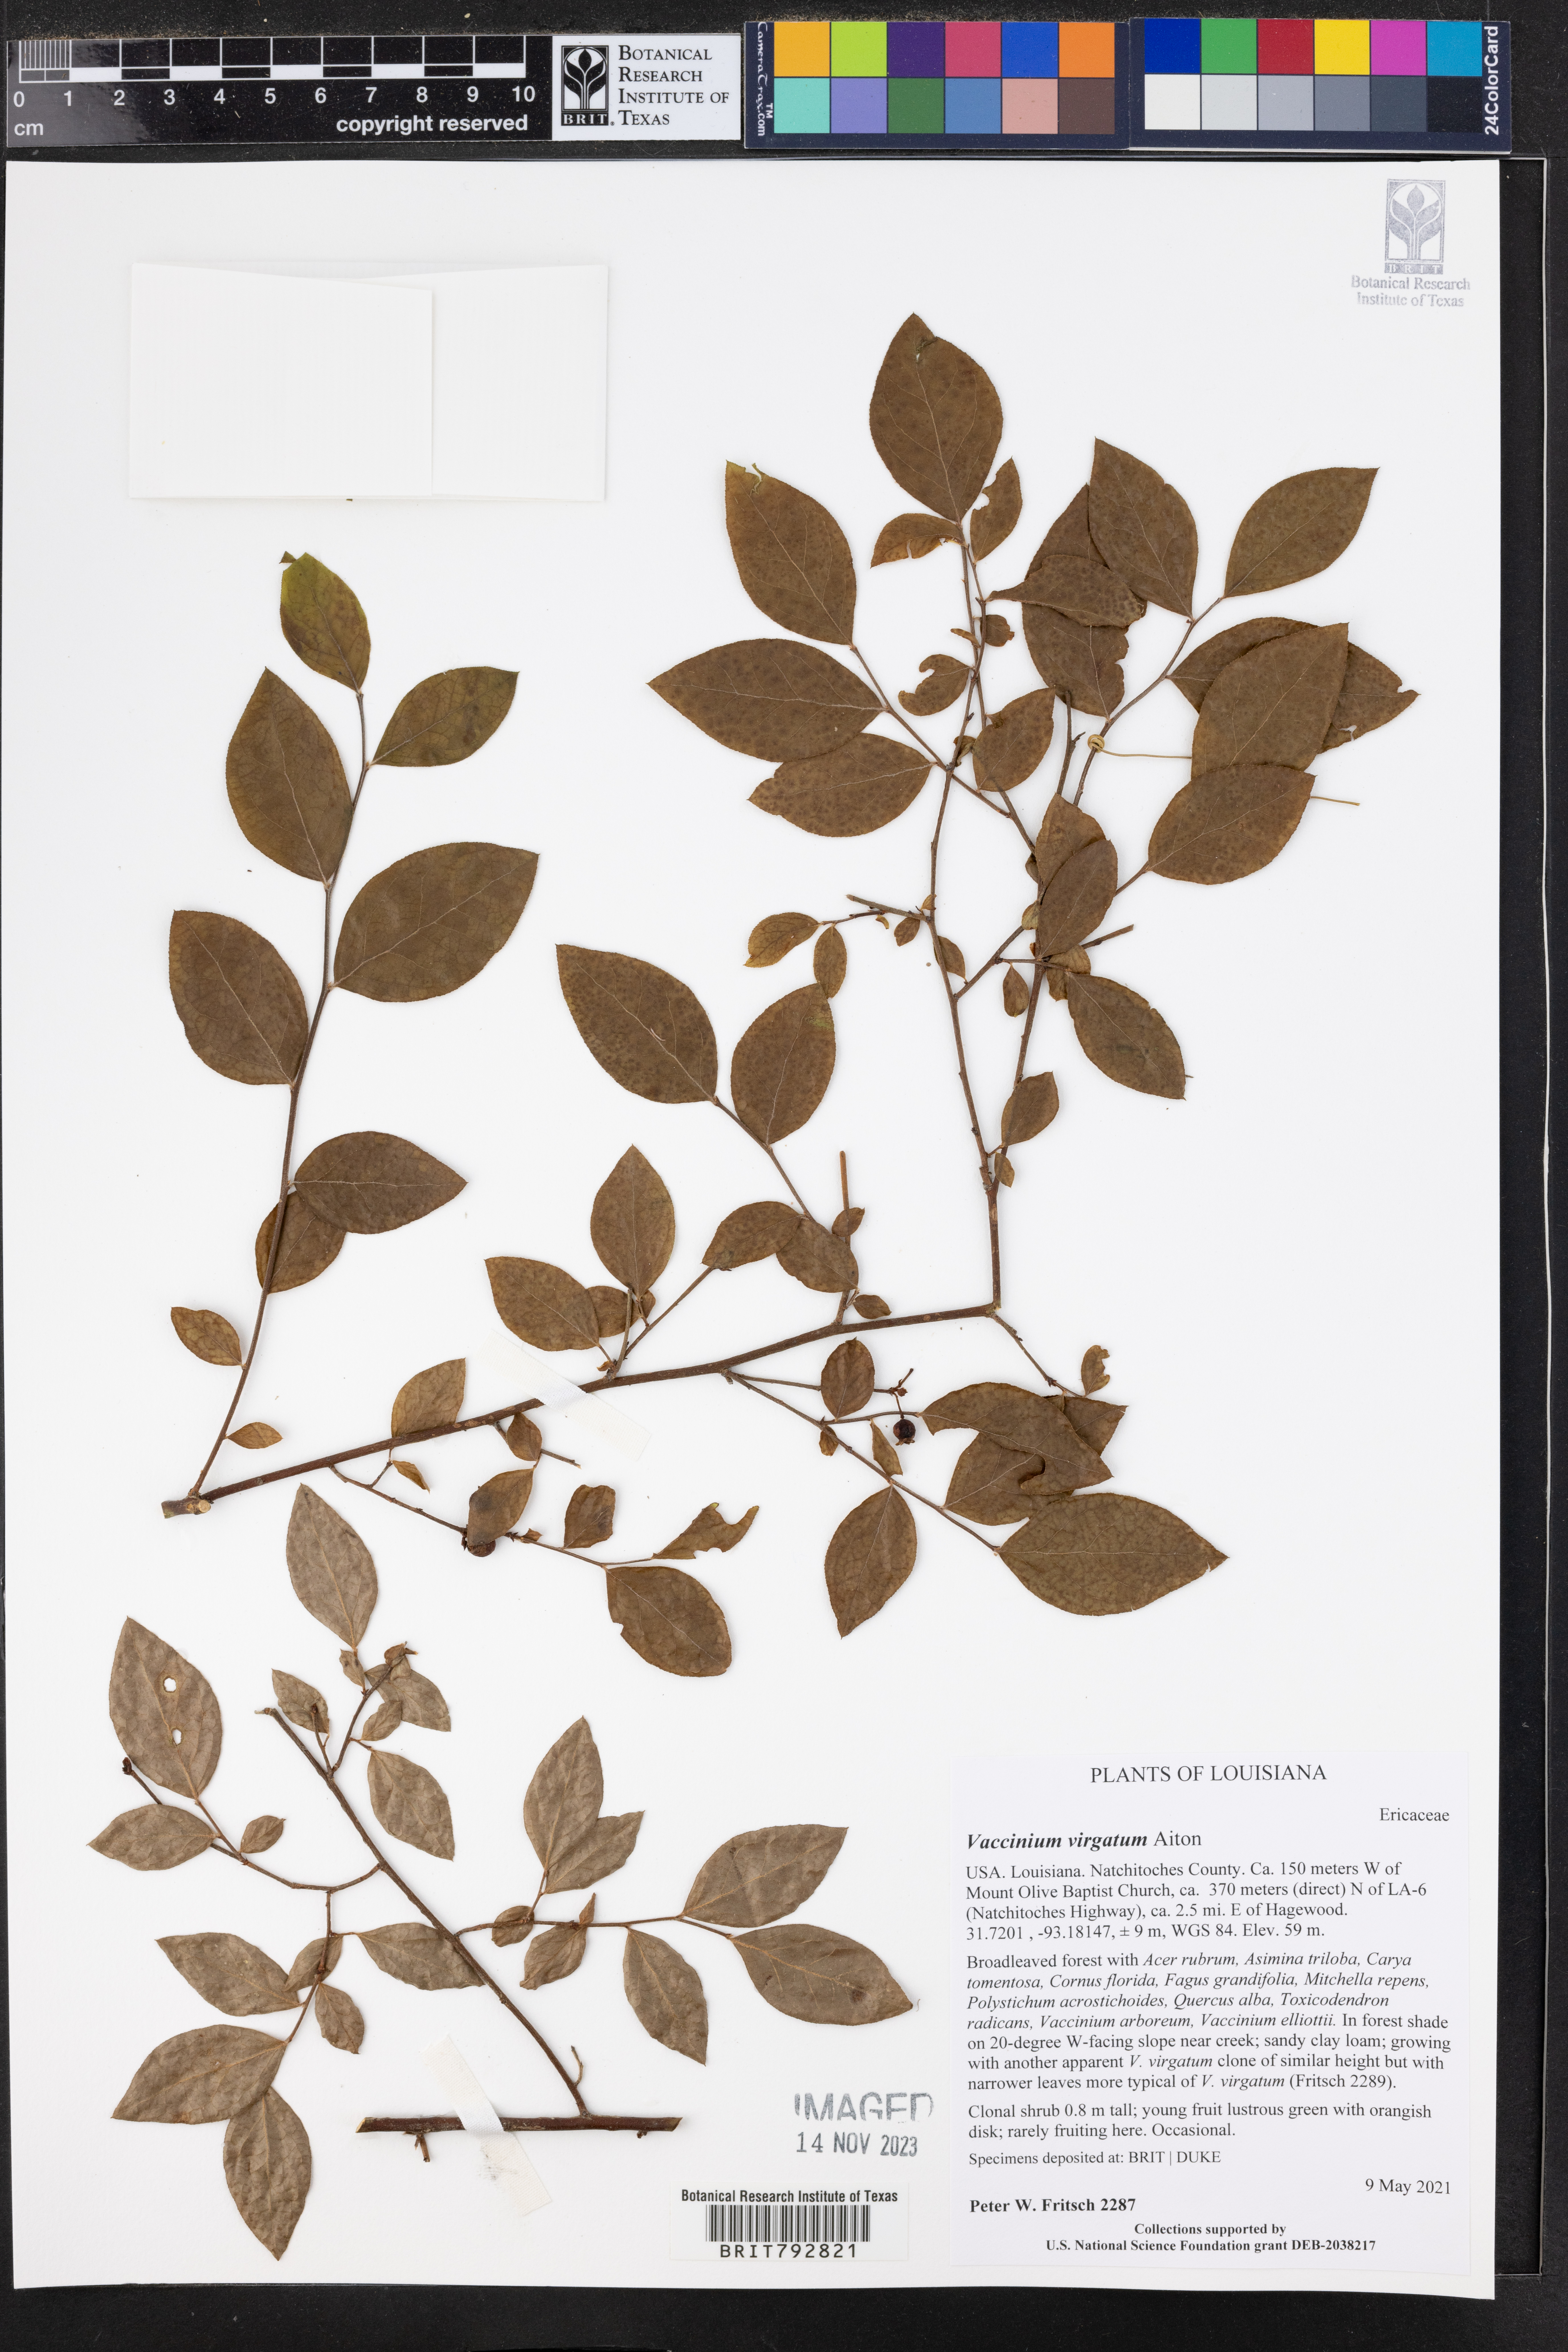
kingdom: Plantae
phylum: Tracheophyta
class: Magnoliopsida
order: Ericales
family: Ericaceae
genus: Vaccinium
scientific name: Vaccinium corymbosum
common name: Blueberry
